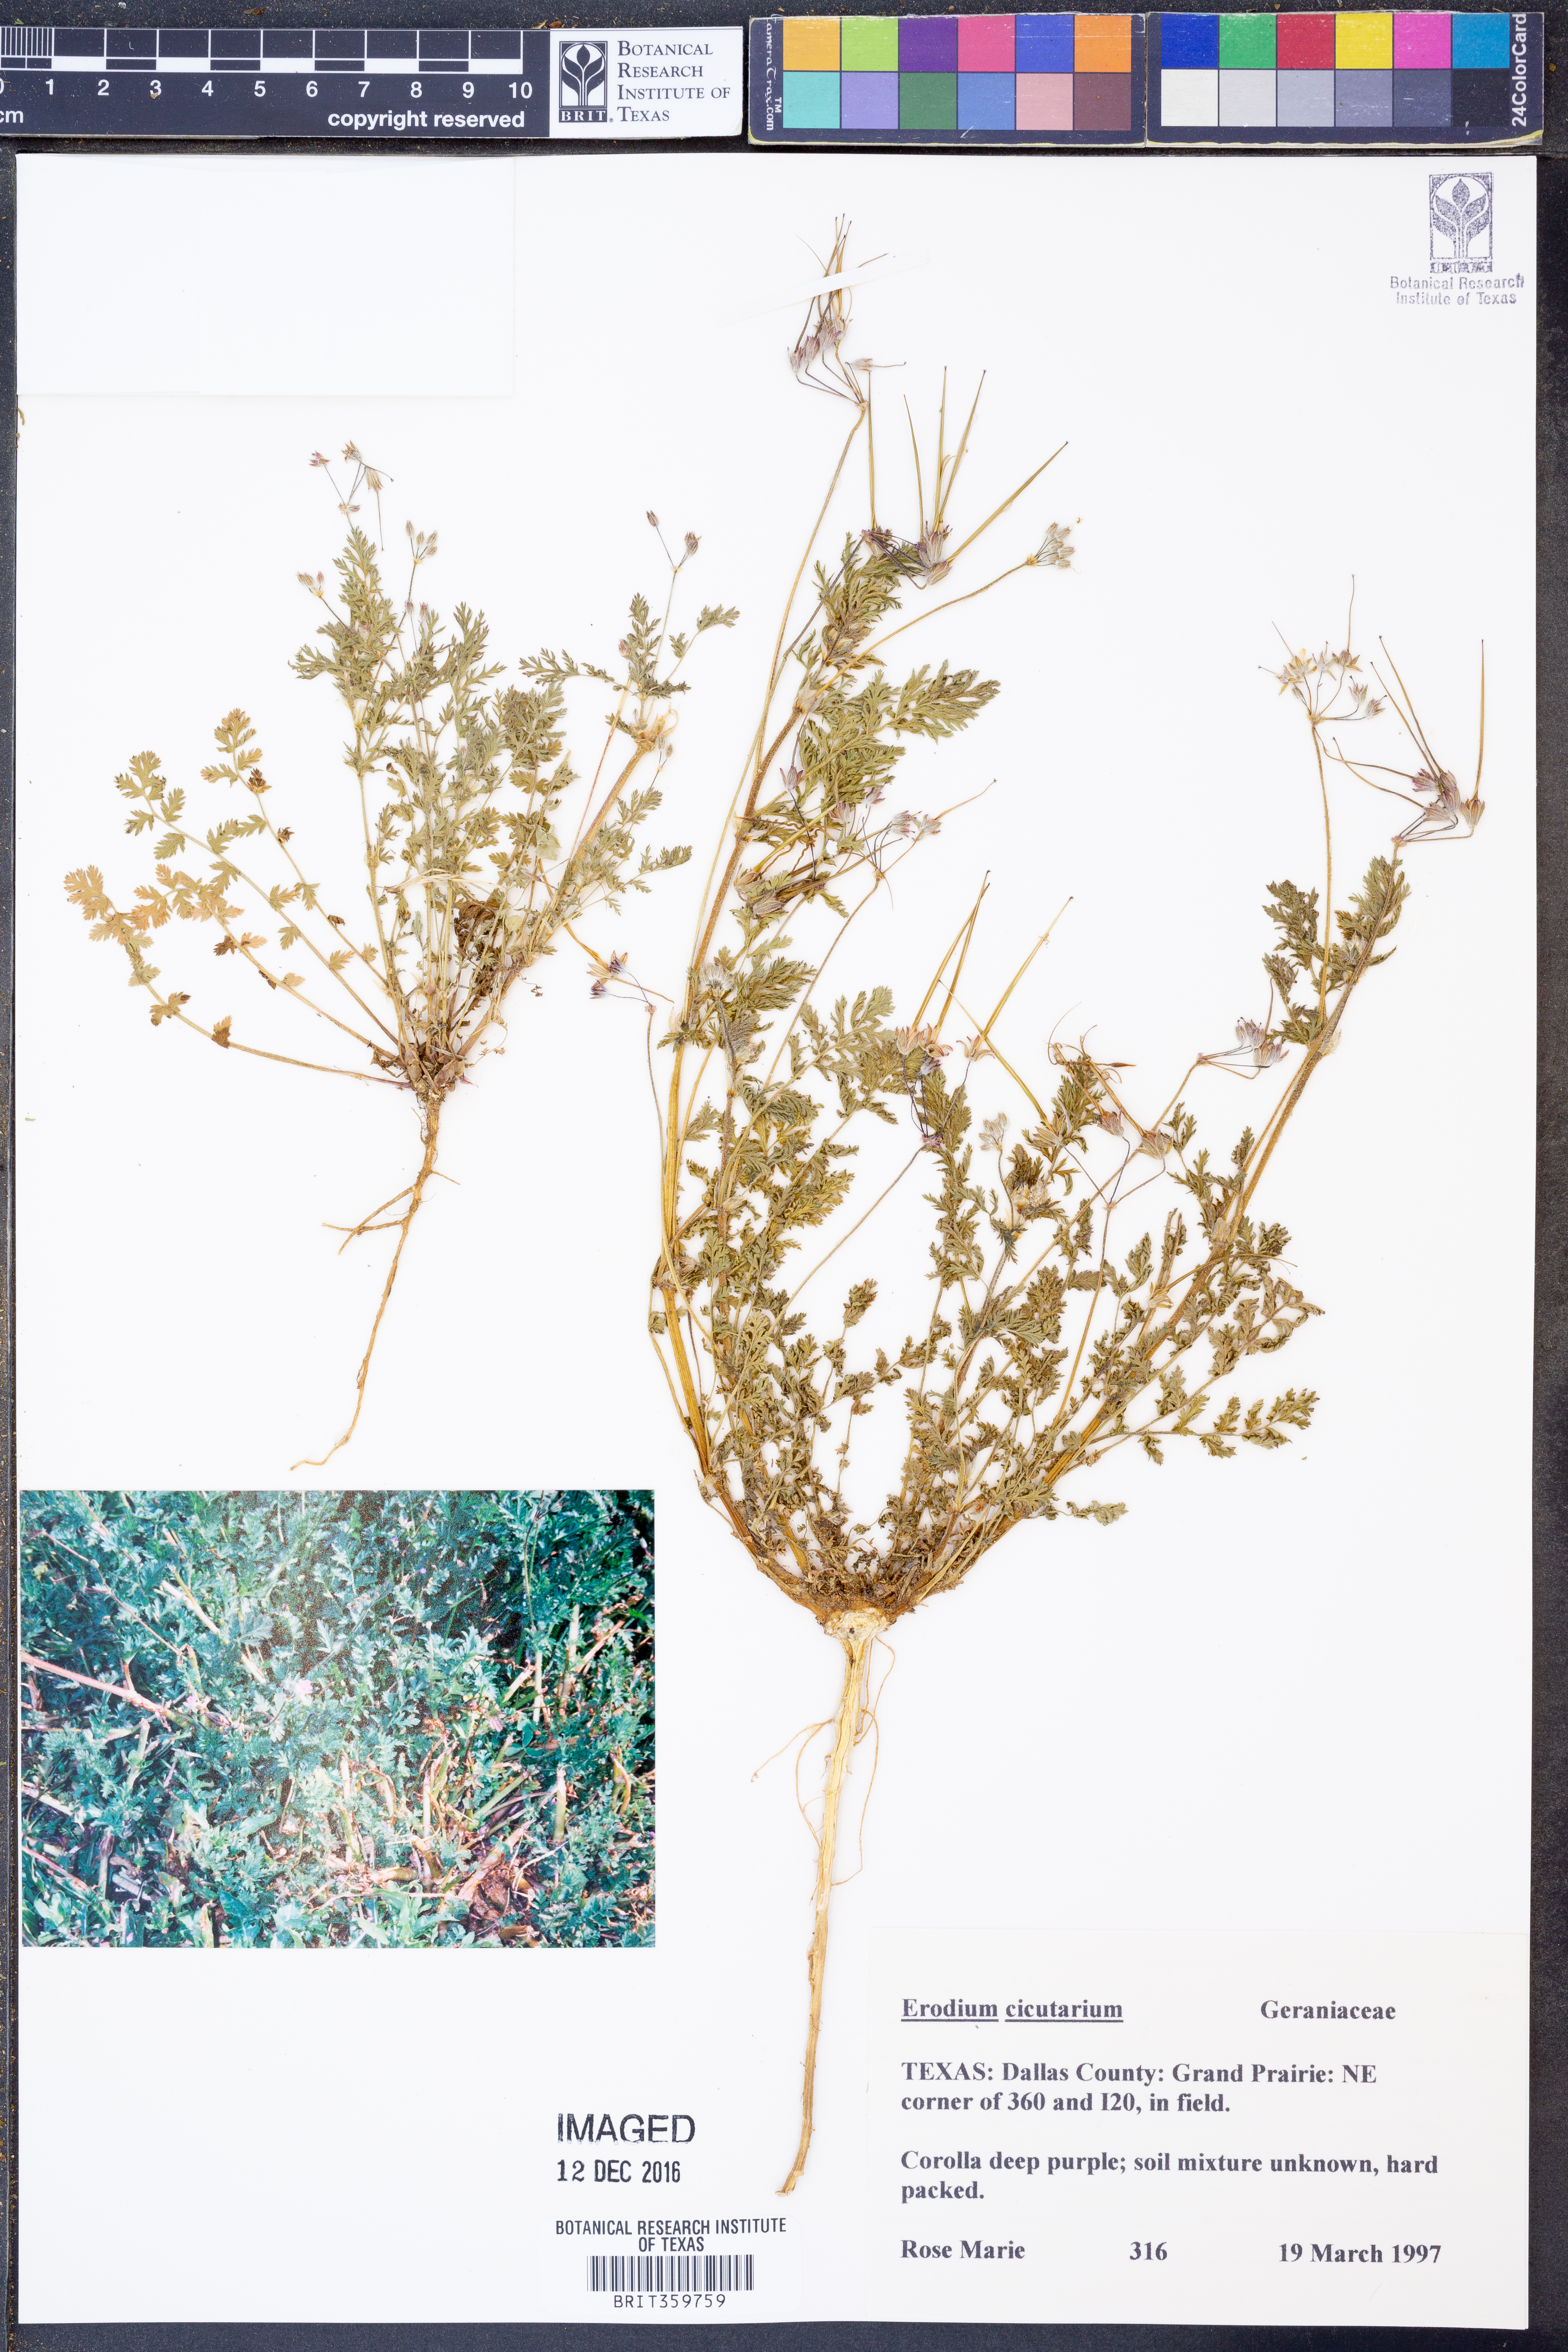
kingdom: Plantae
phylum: Tracheophyta
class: Magnoliopsida
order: Geraniales
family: Geraniaceae
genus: Erodium
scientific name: Erodium cicutarium
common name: Common stork's-bill
